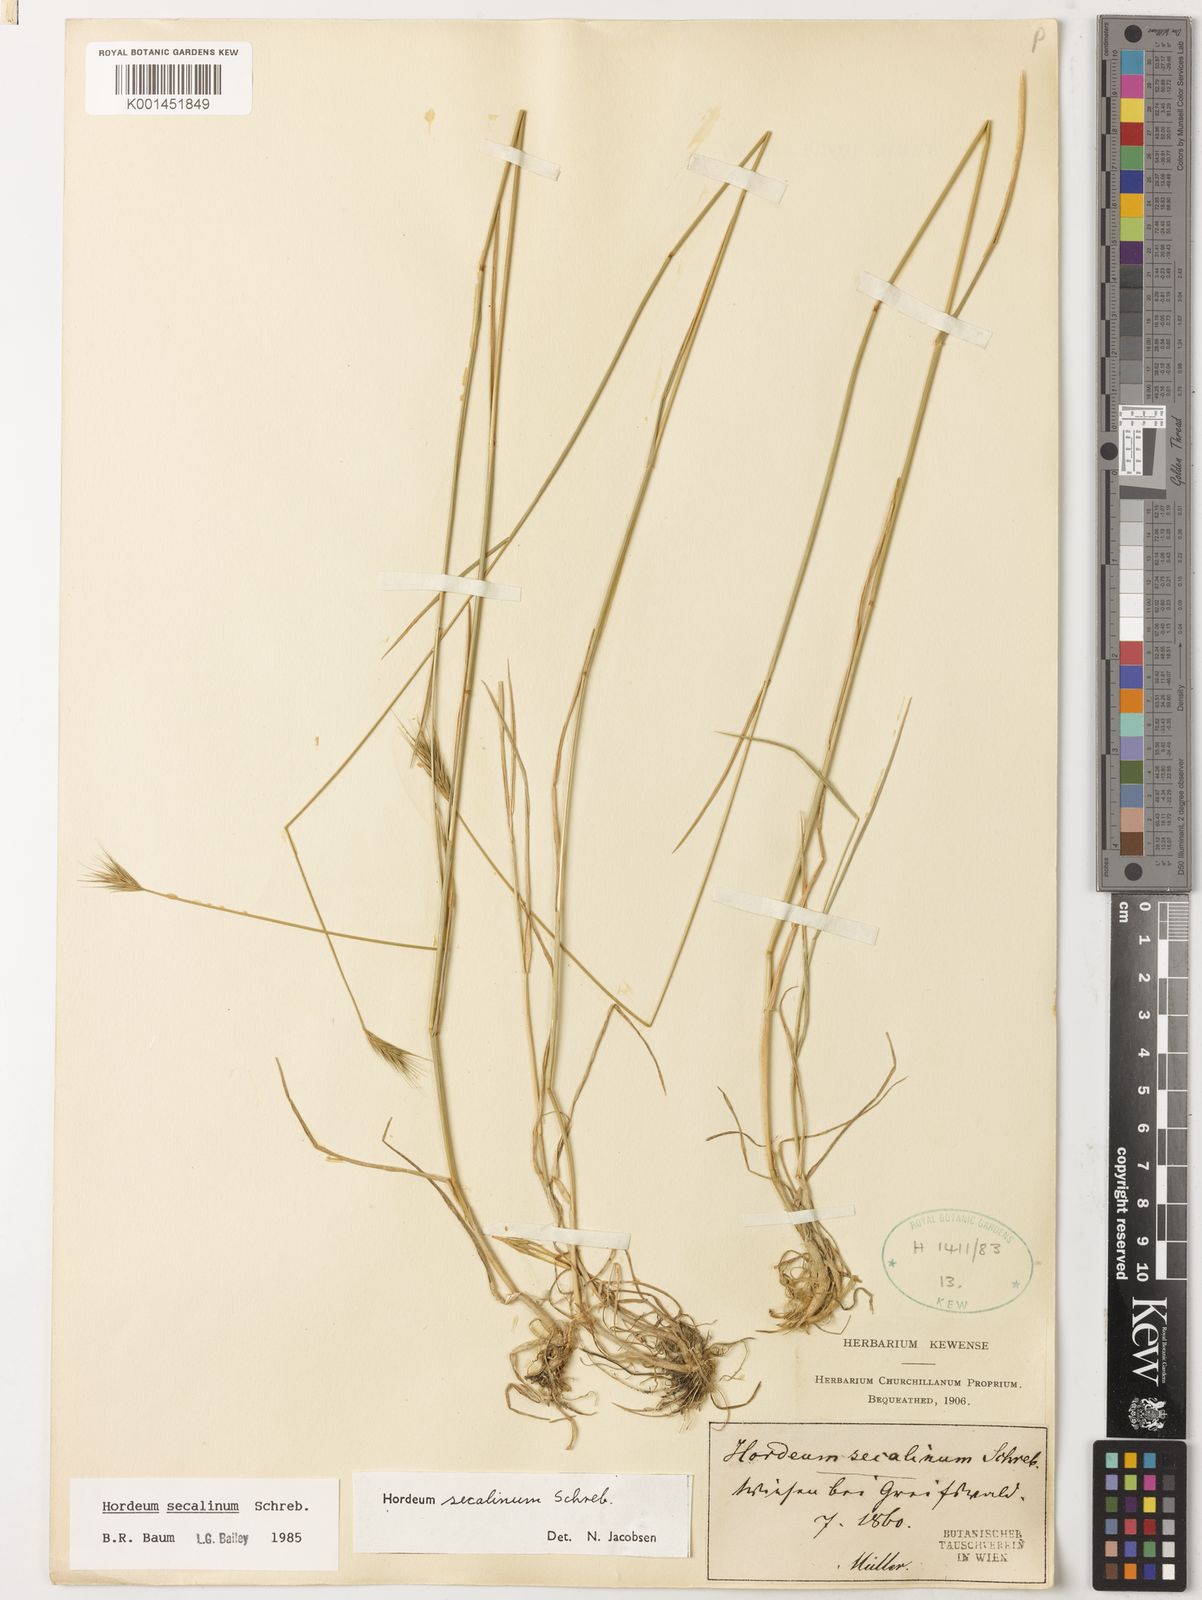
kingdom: Plantae
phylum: Tracheophyta
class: Liliopsida
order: Poales
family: Poaceae
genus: Hordeum
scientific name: Hordeum secalinum
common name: Meadow barley
